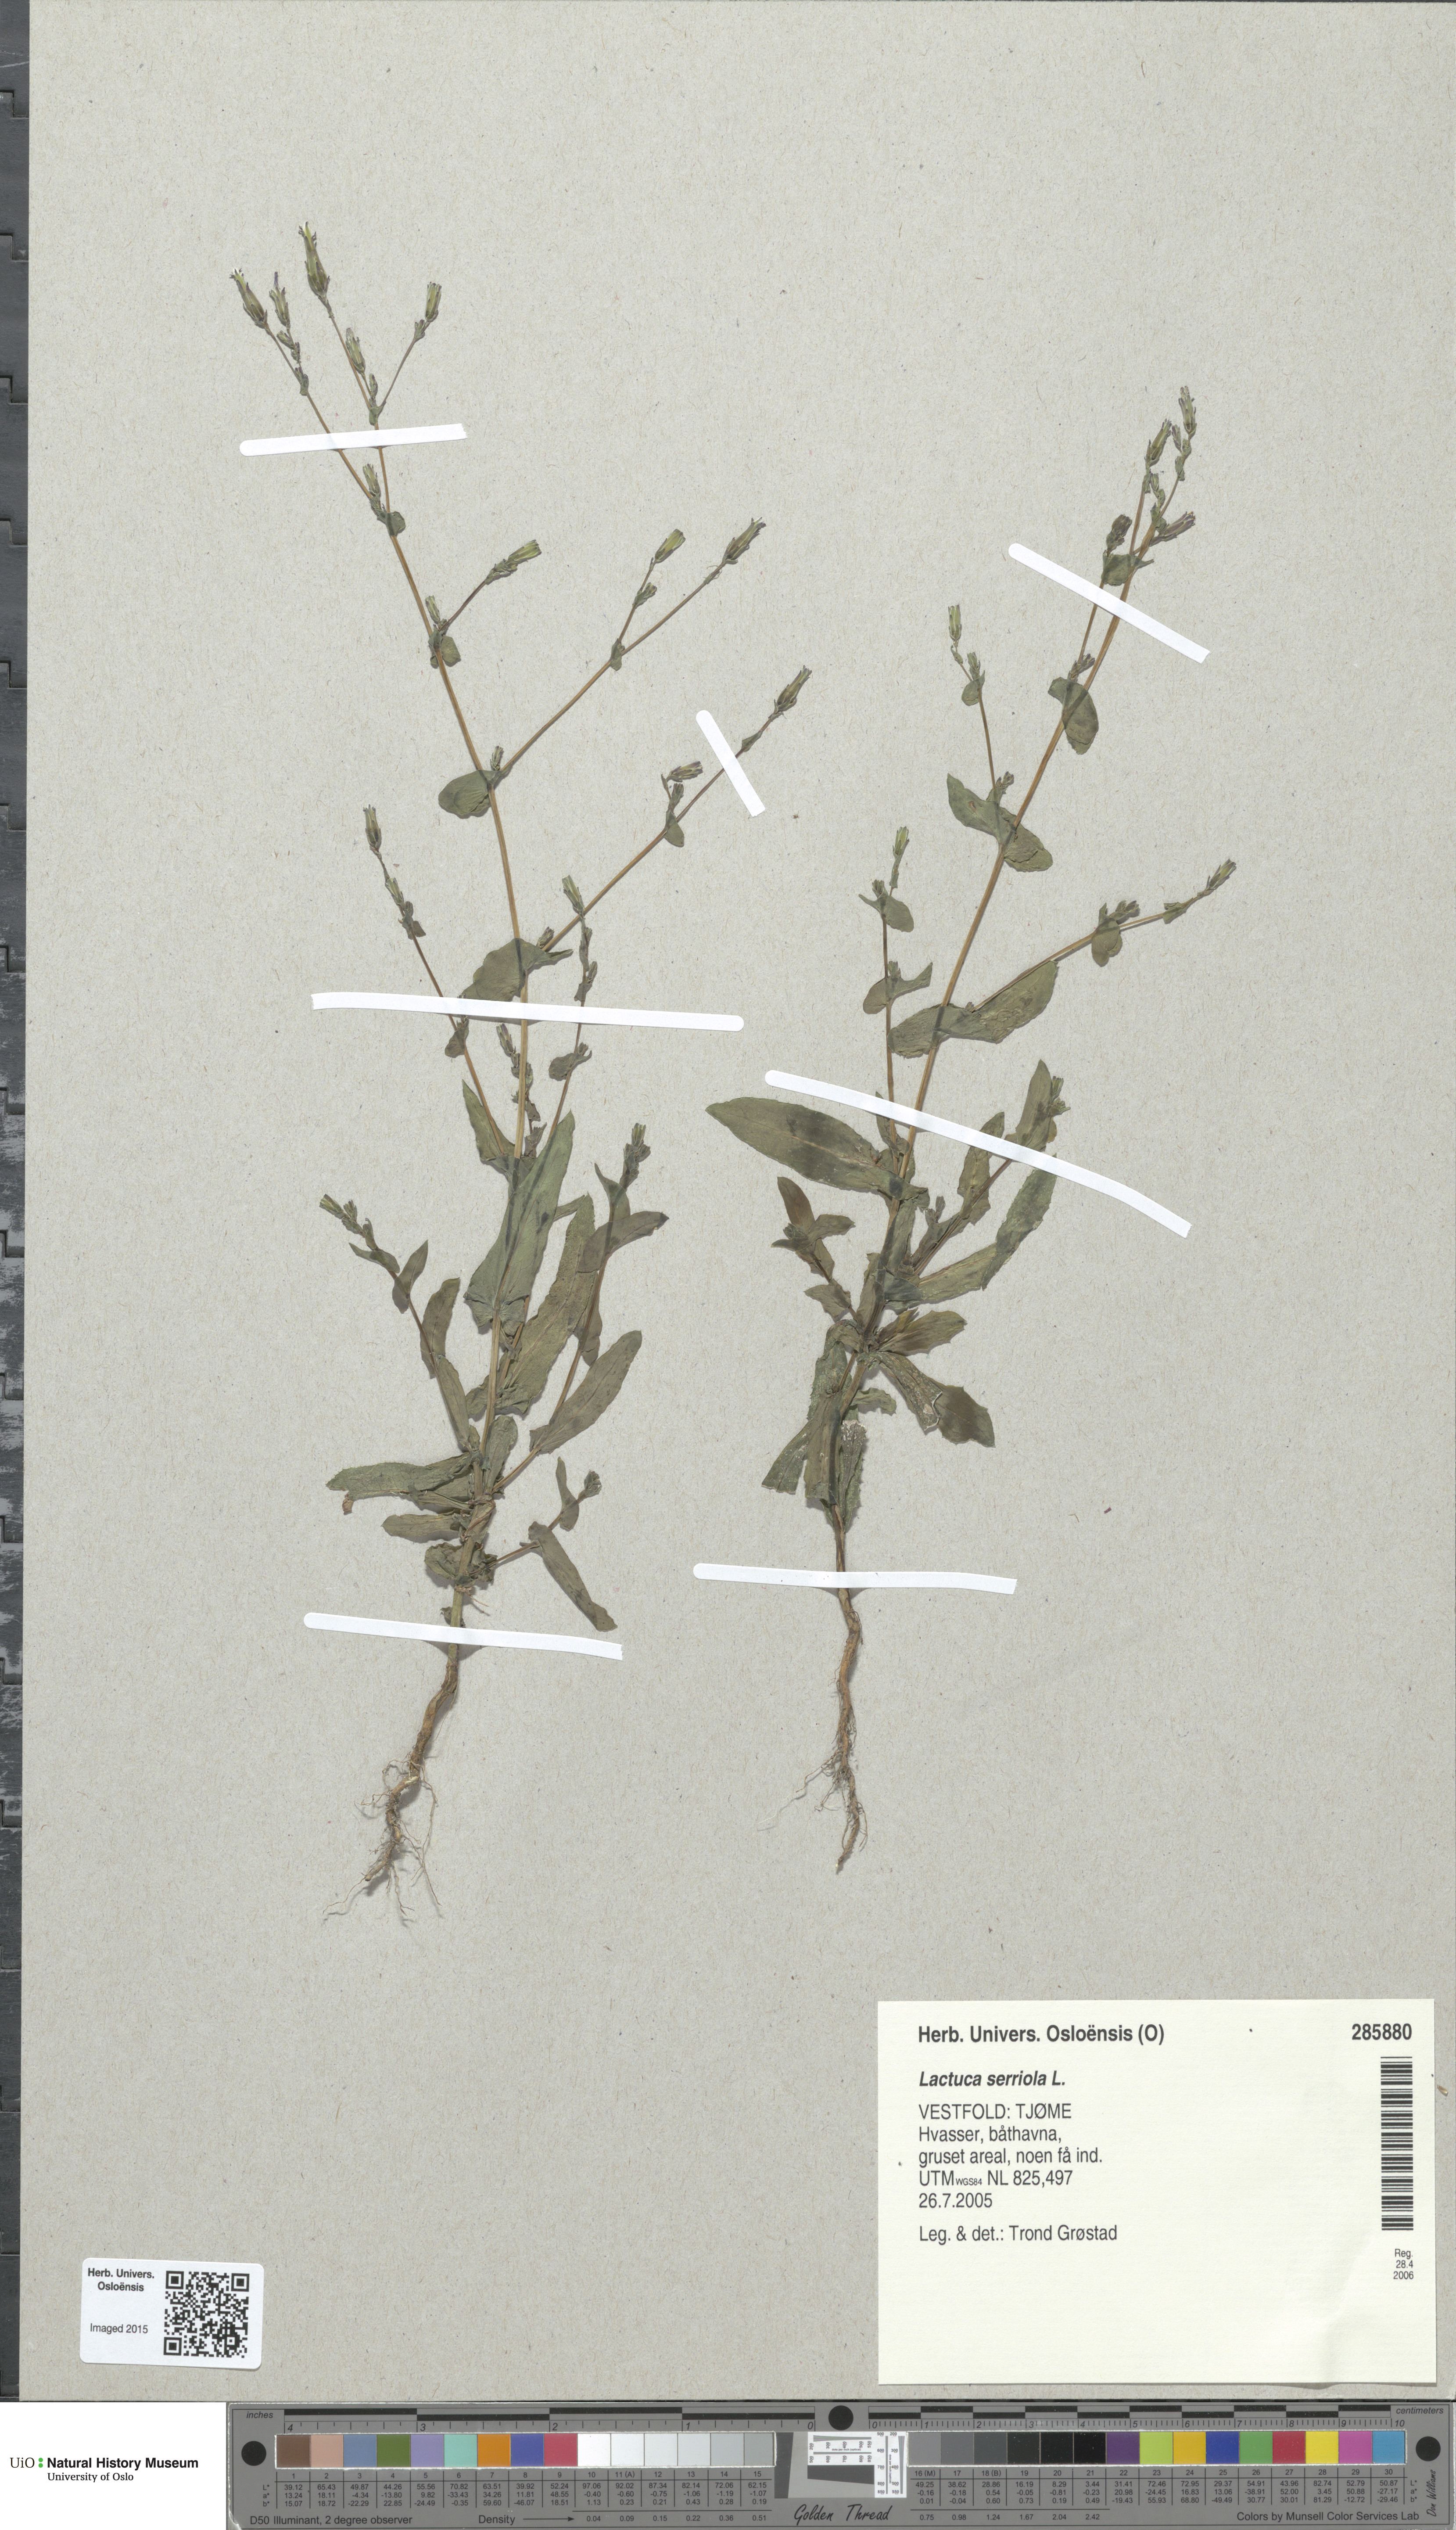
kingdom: Plantae
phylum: Tracheophyta
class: Magnoliopsida
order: Asterales
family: Asteraceae
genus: Lactuca
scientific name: Lactuca serriola
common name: Prickly lettuce
